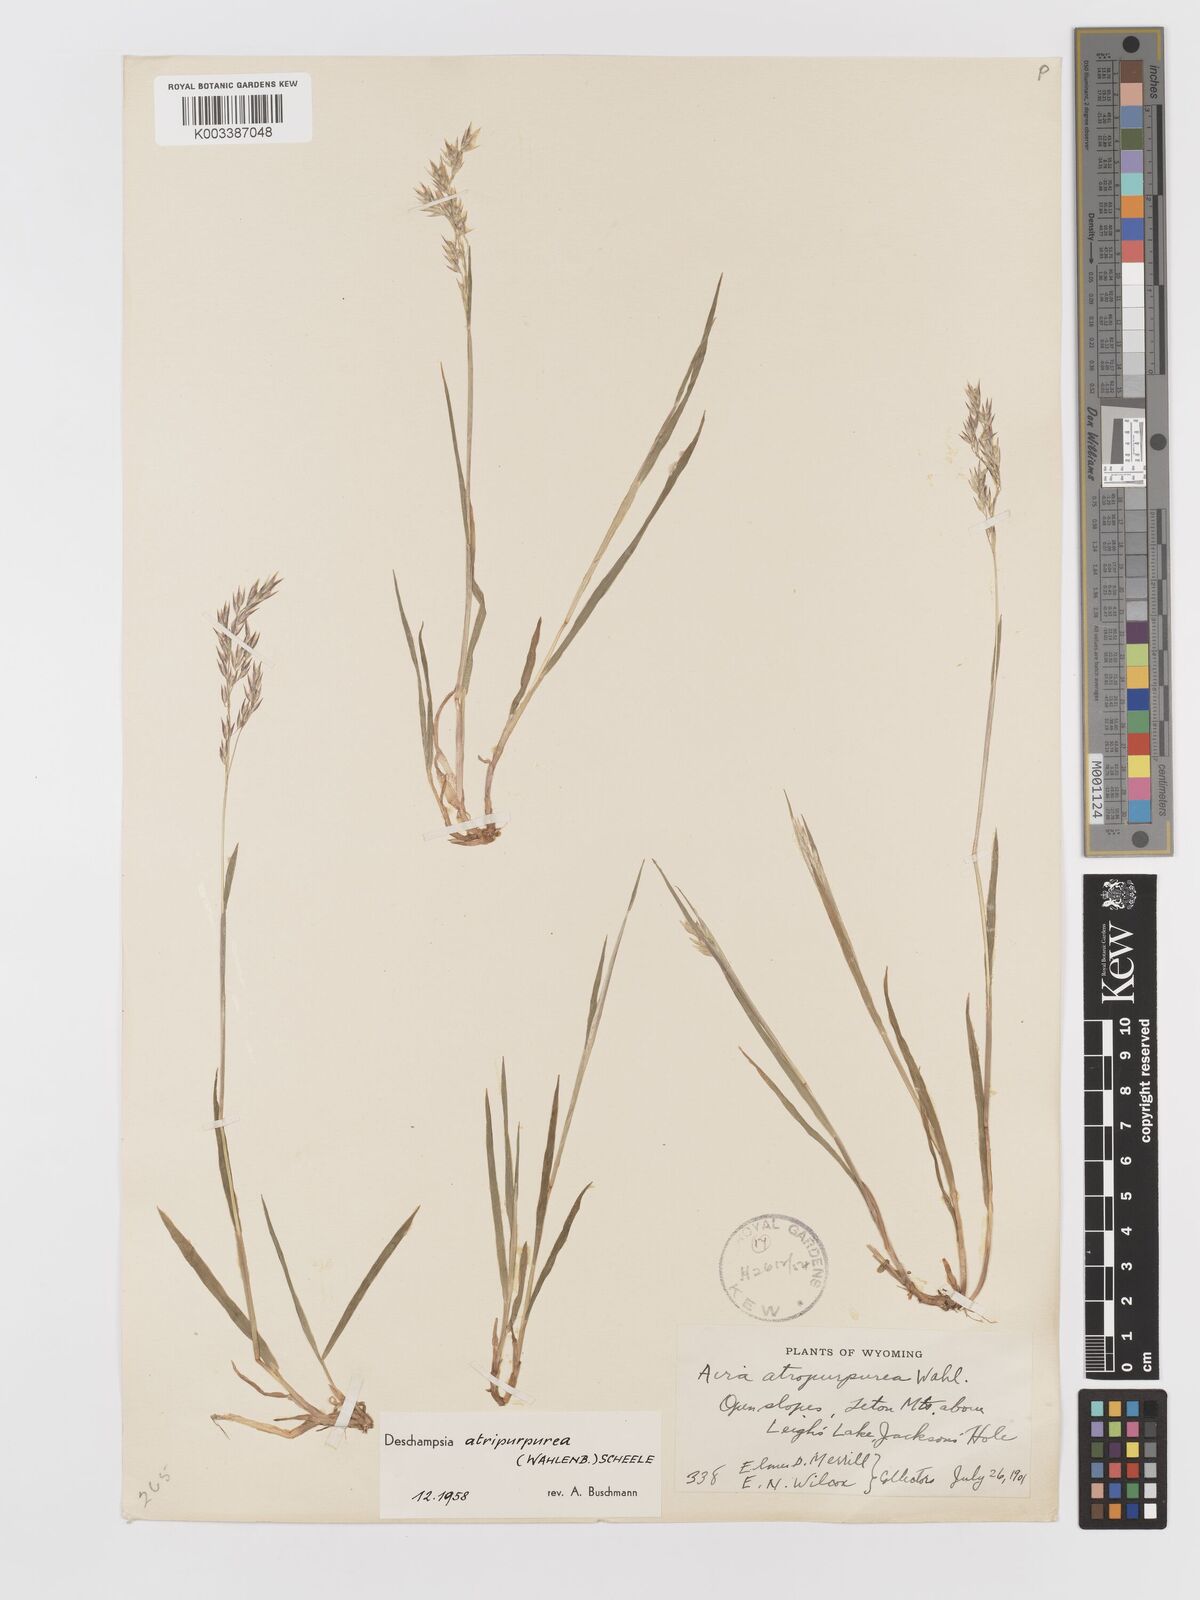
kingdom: Plantae
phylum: Tracheophyta
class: Liliopsida
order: Poales
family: Poaceae
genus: Vahlodea
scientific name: Vahlodea atropurpurea
